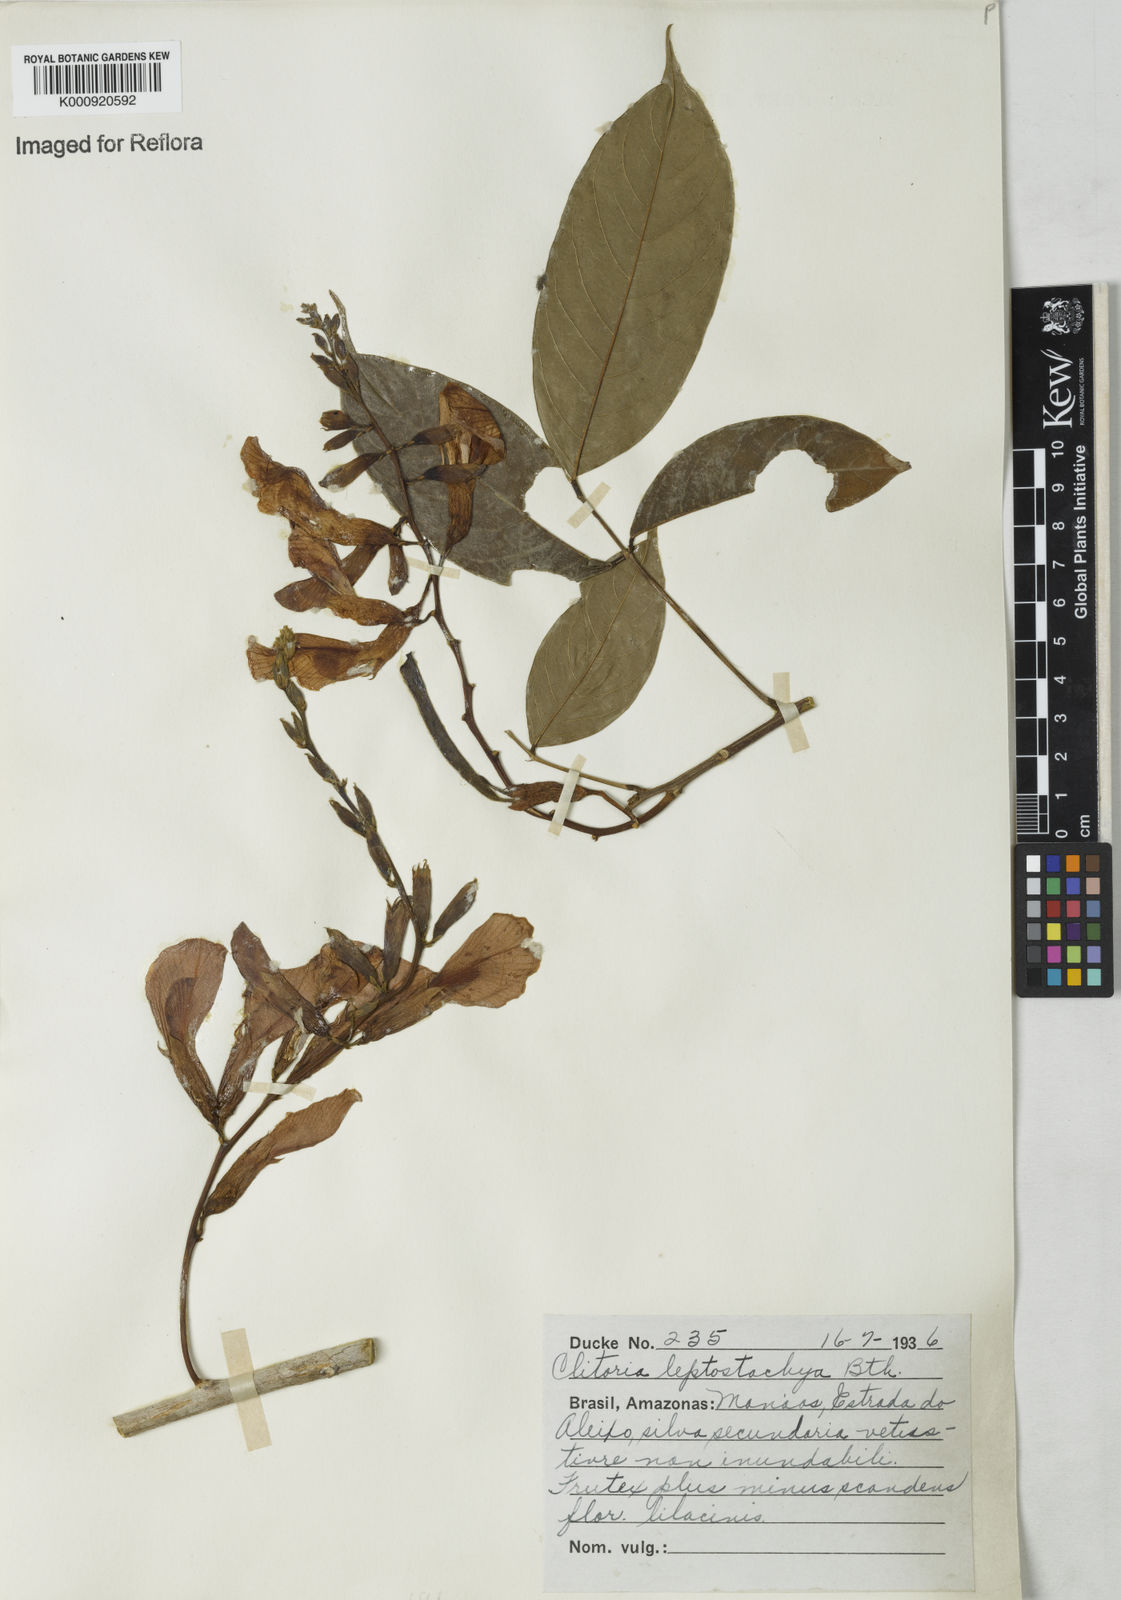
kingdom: Plantae
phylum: Tracheophyta
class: Magnoliopsida
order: Fabales
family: Fabaceae
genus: Clitoria
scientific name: Clitoria leptostachya
